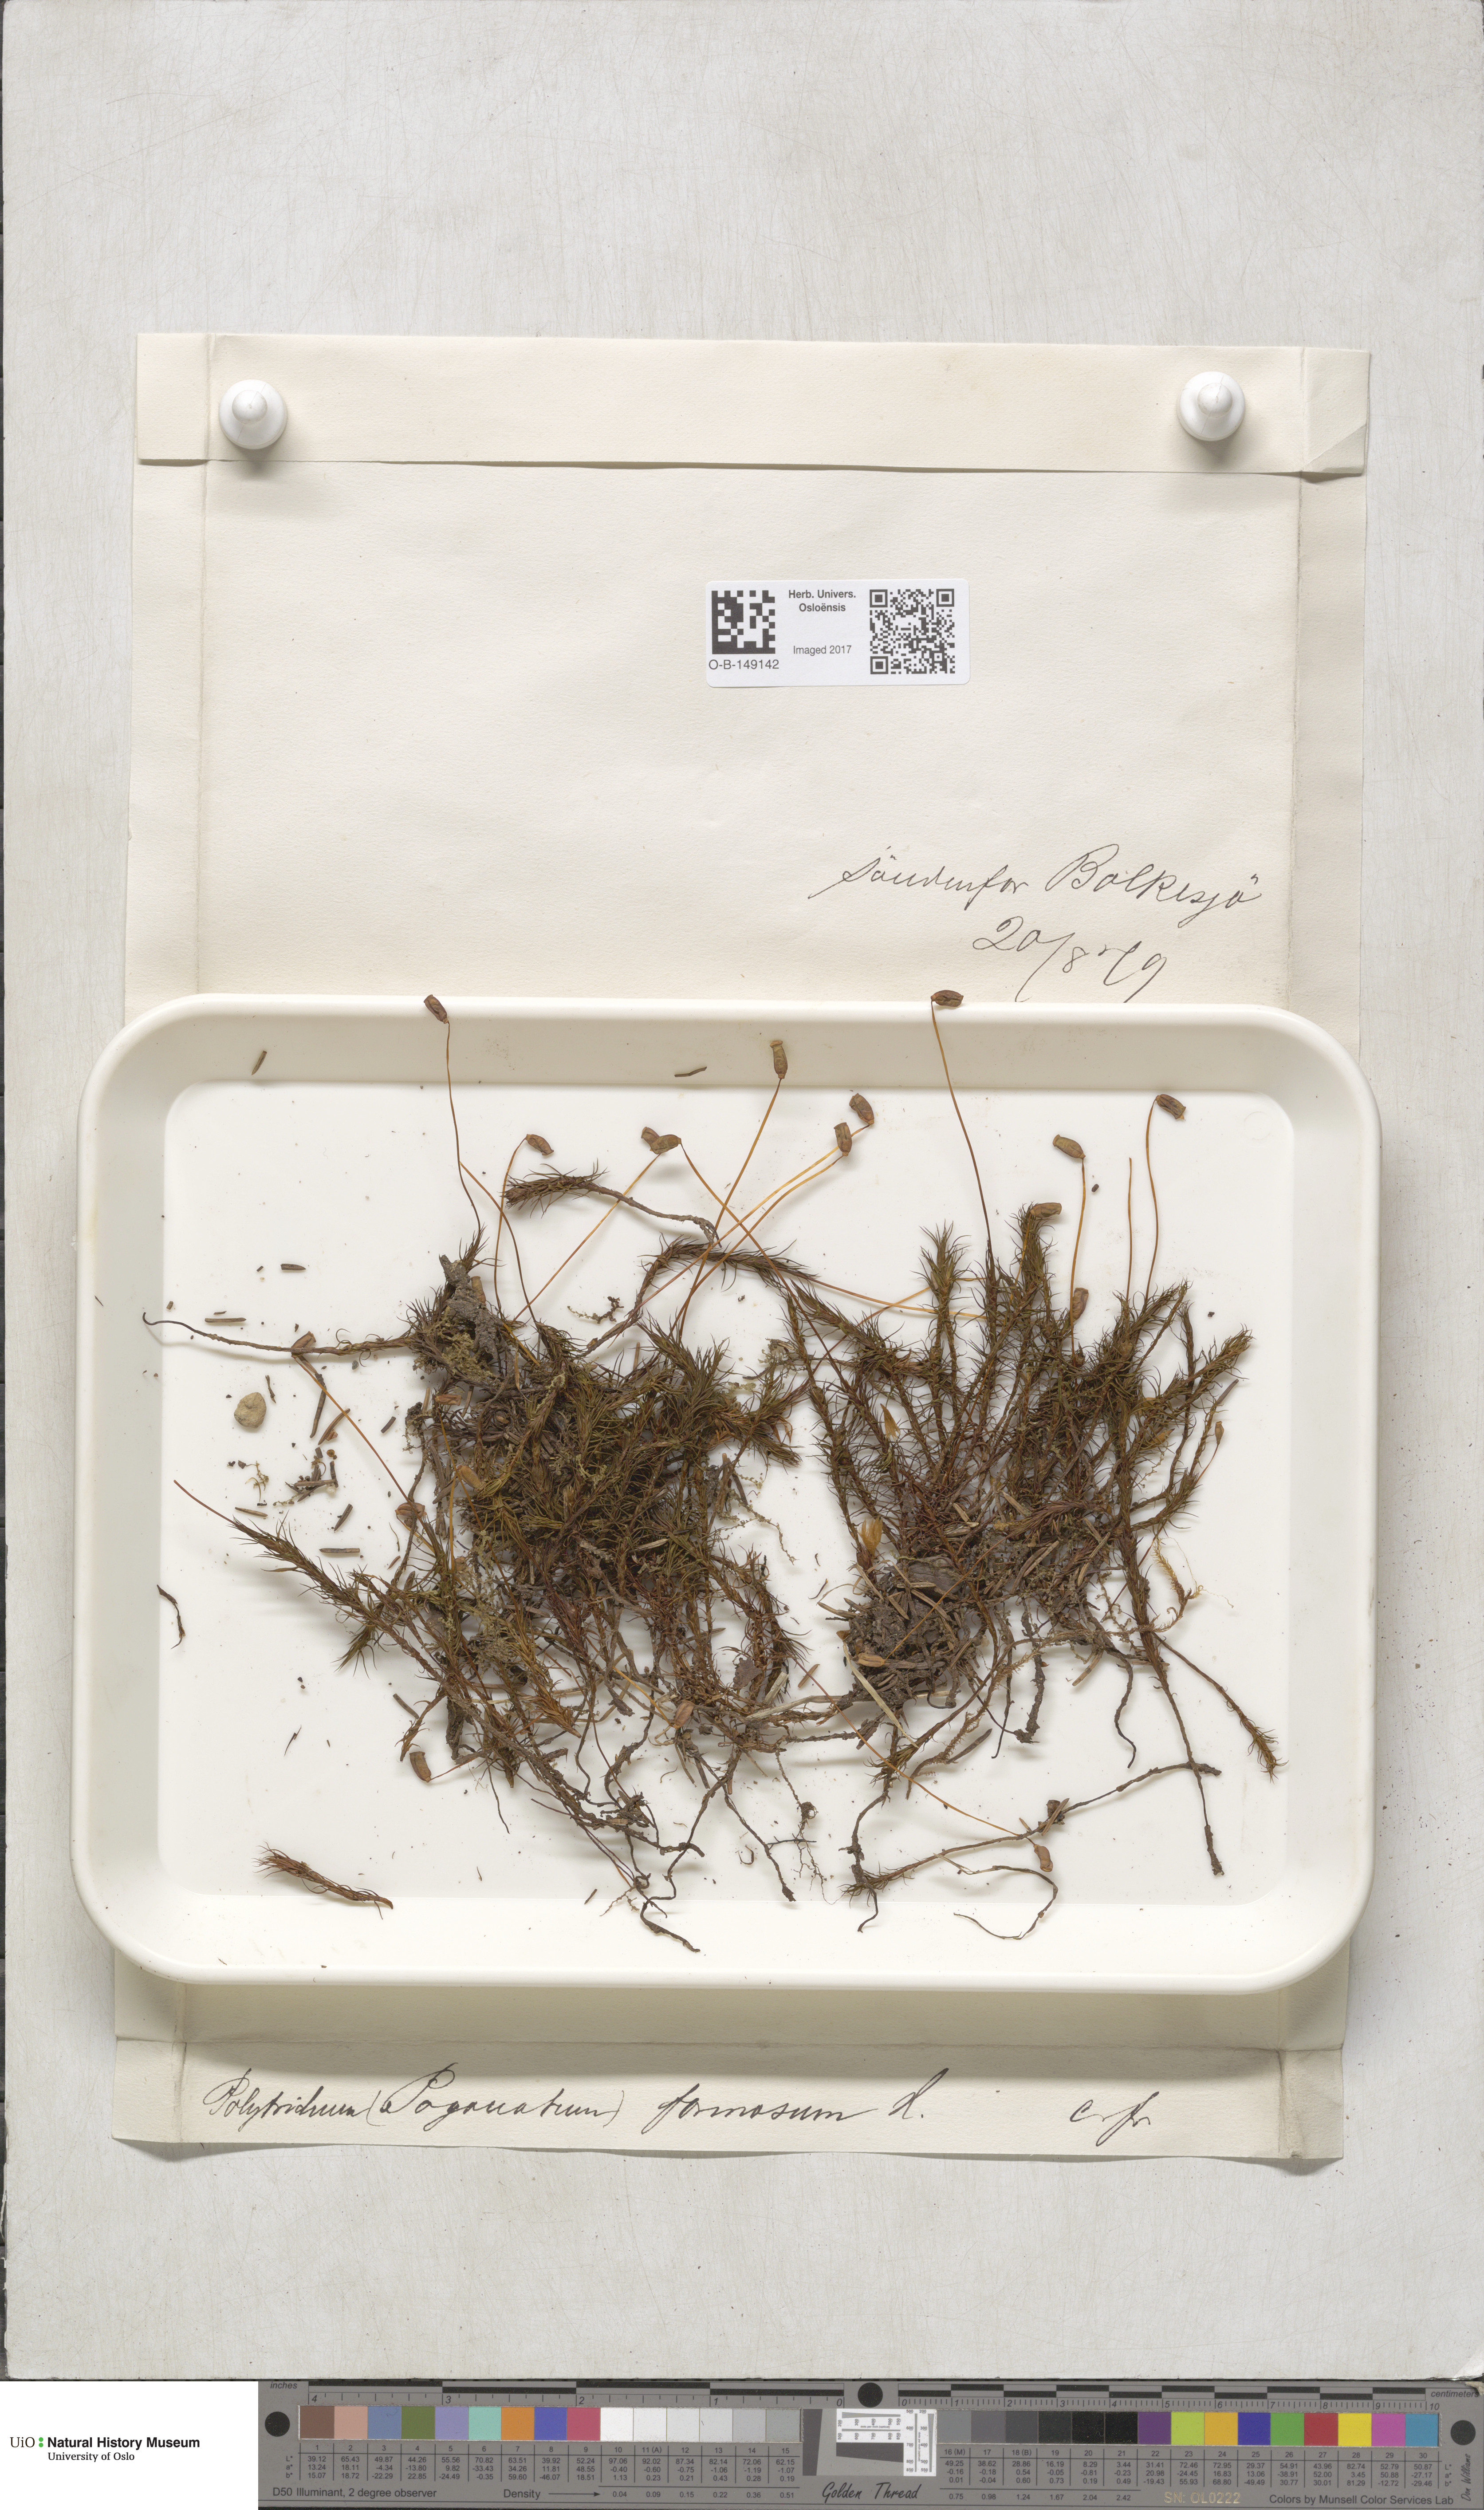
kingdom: Plantae
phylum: Bryophyta
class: Polytrichopsida
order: Polytrichales
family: Polytrichaceae
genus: Polytrichum
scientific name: Polytrichum formosum
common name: Bank haircap moss
